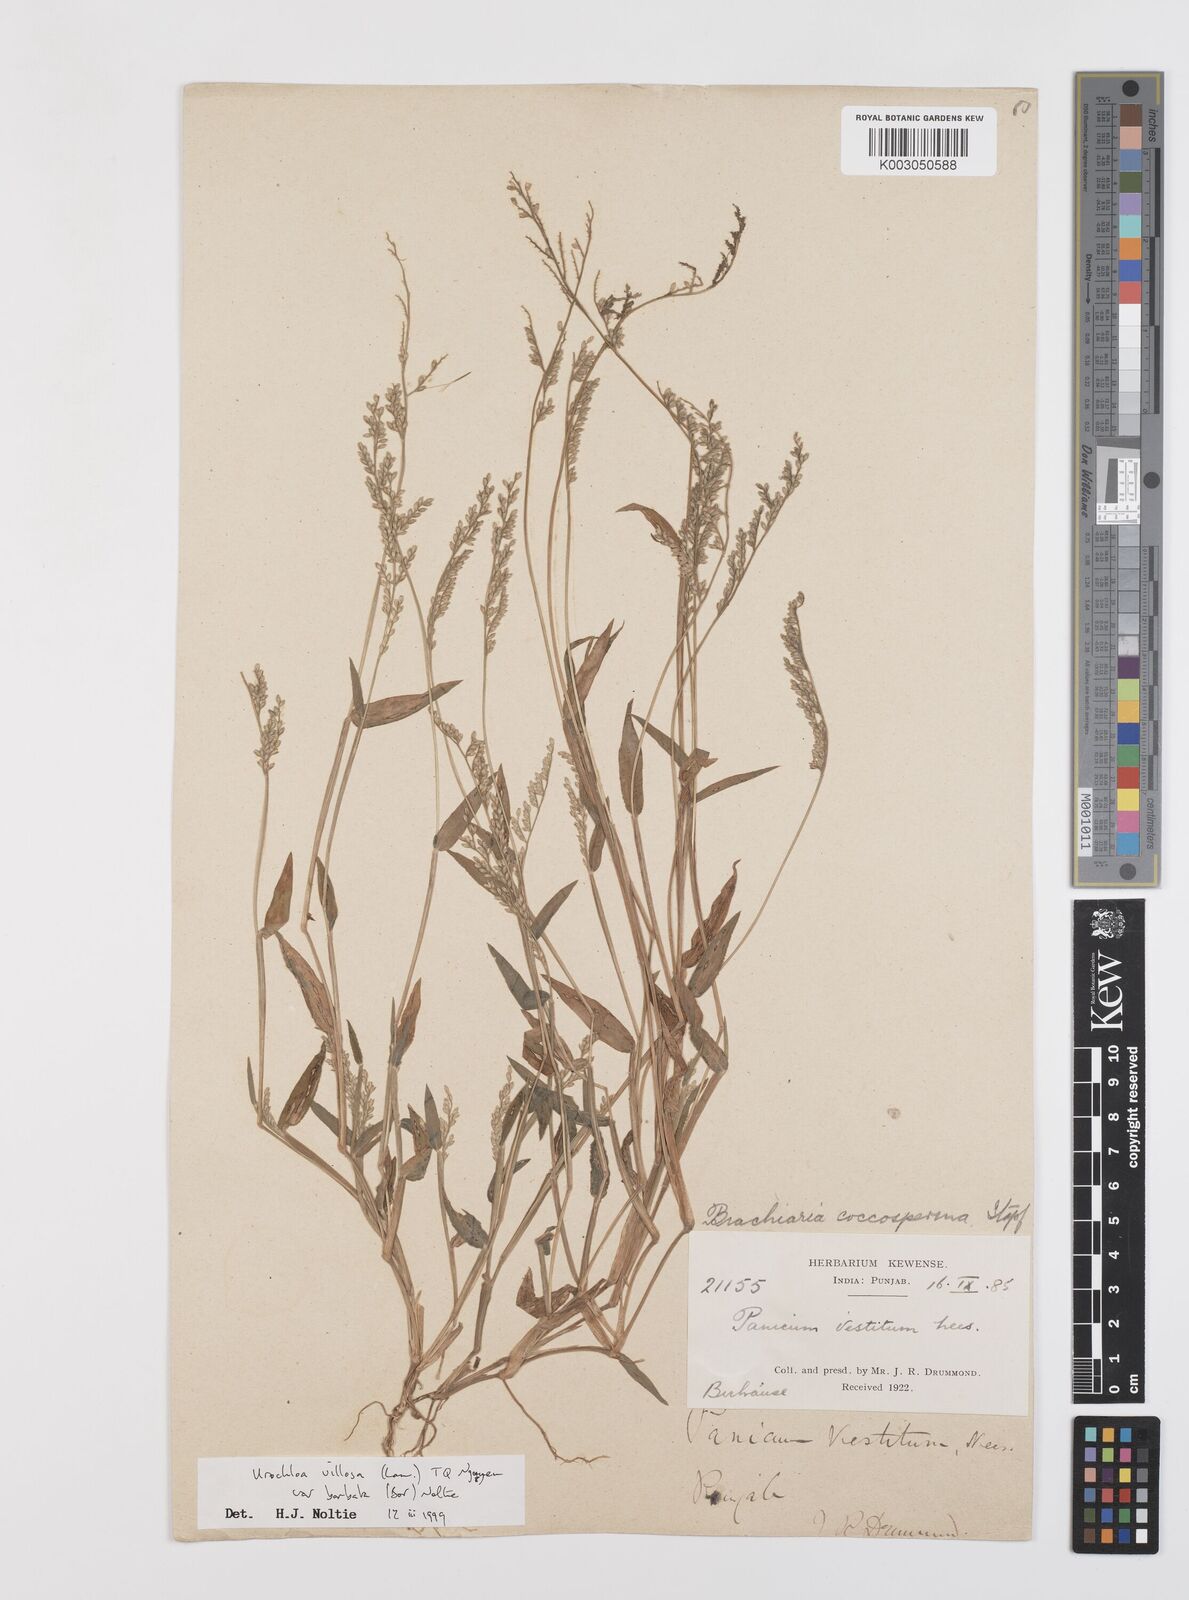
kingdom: Plantae
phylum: Tracheophyta
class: Liliopsida
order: Poales
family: Poaceae
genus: Urochloa
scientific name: Urochloa villosa
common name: Hairy signalgrass
